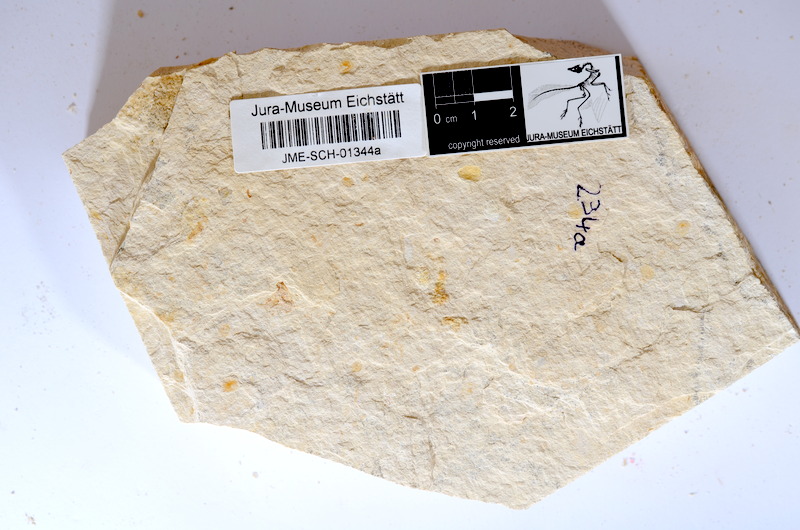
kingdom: Animalia
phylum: Chordata
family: Ascalaboidae
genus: Tharsis
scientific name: Tharsis dubius
